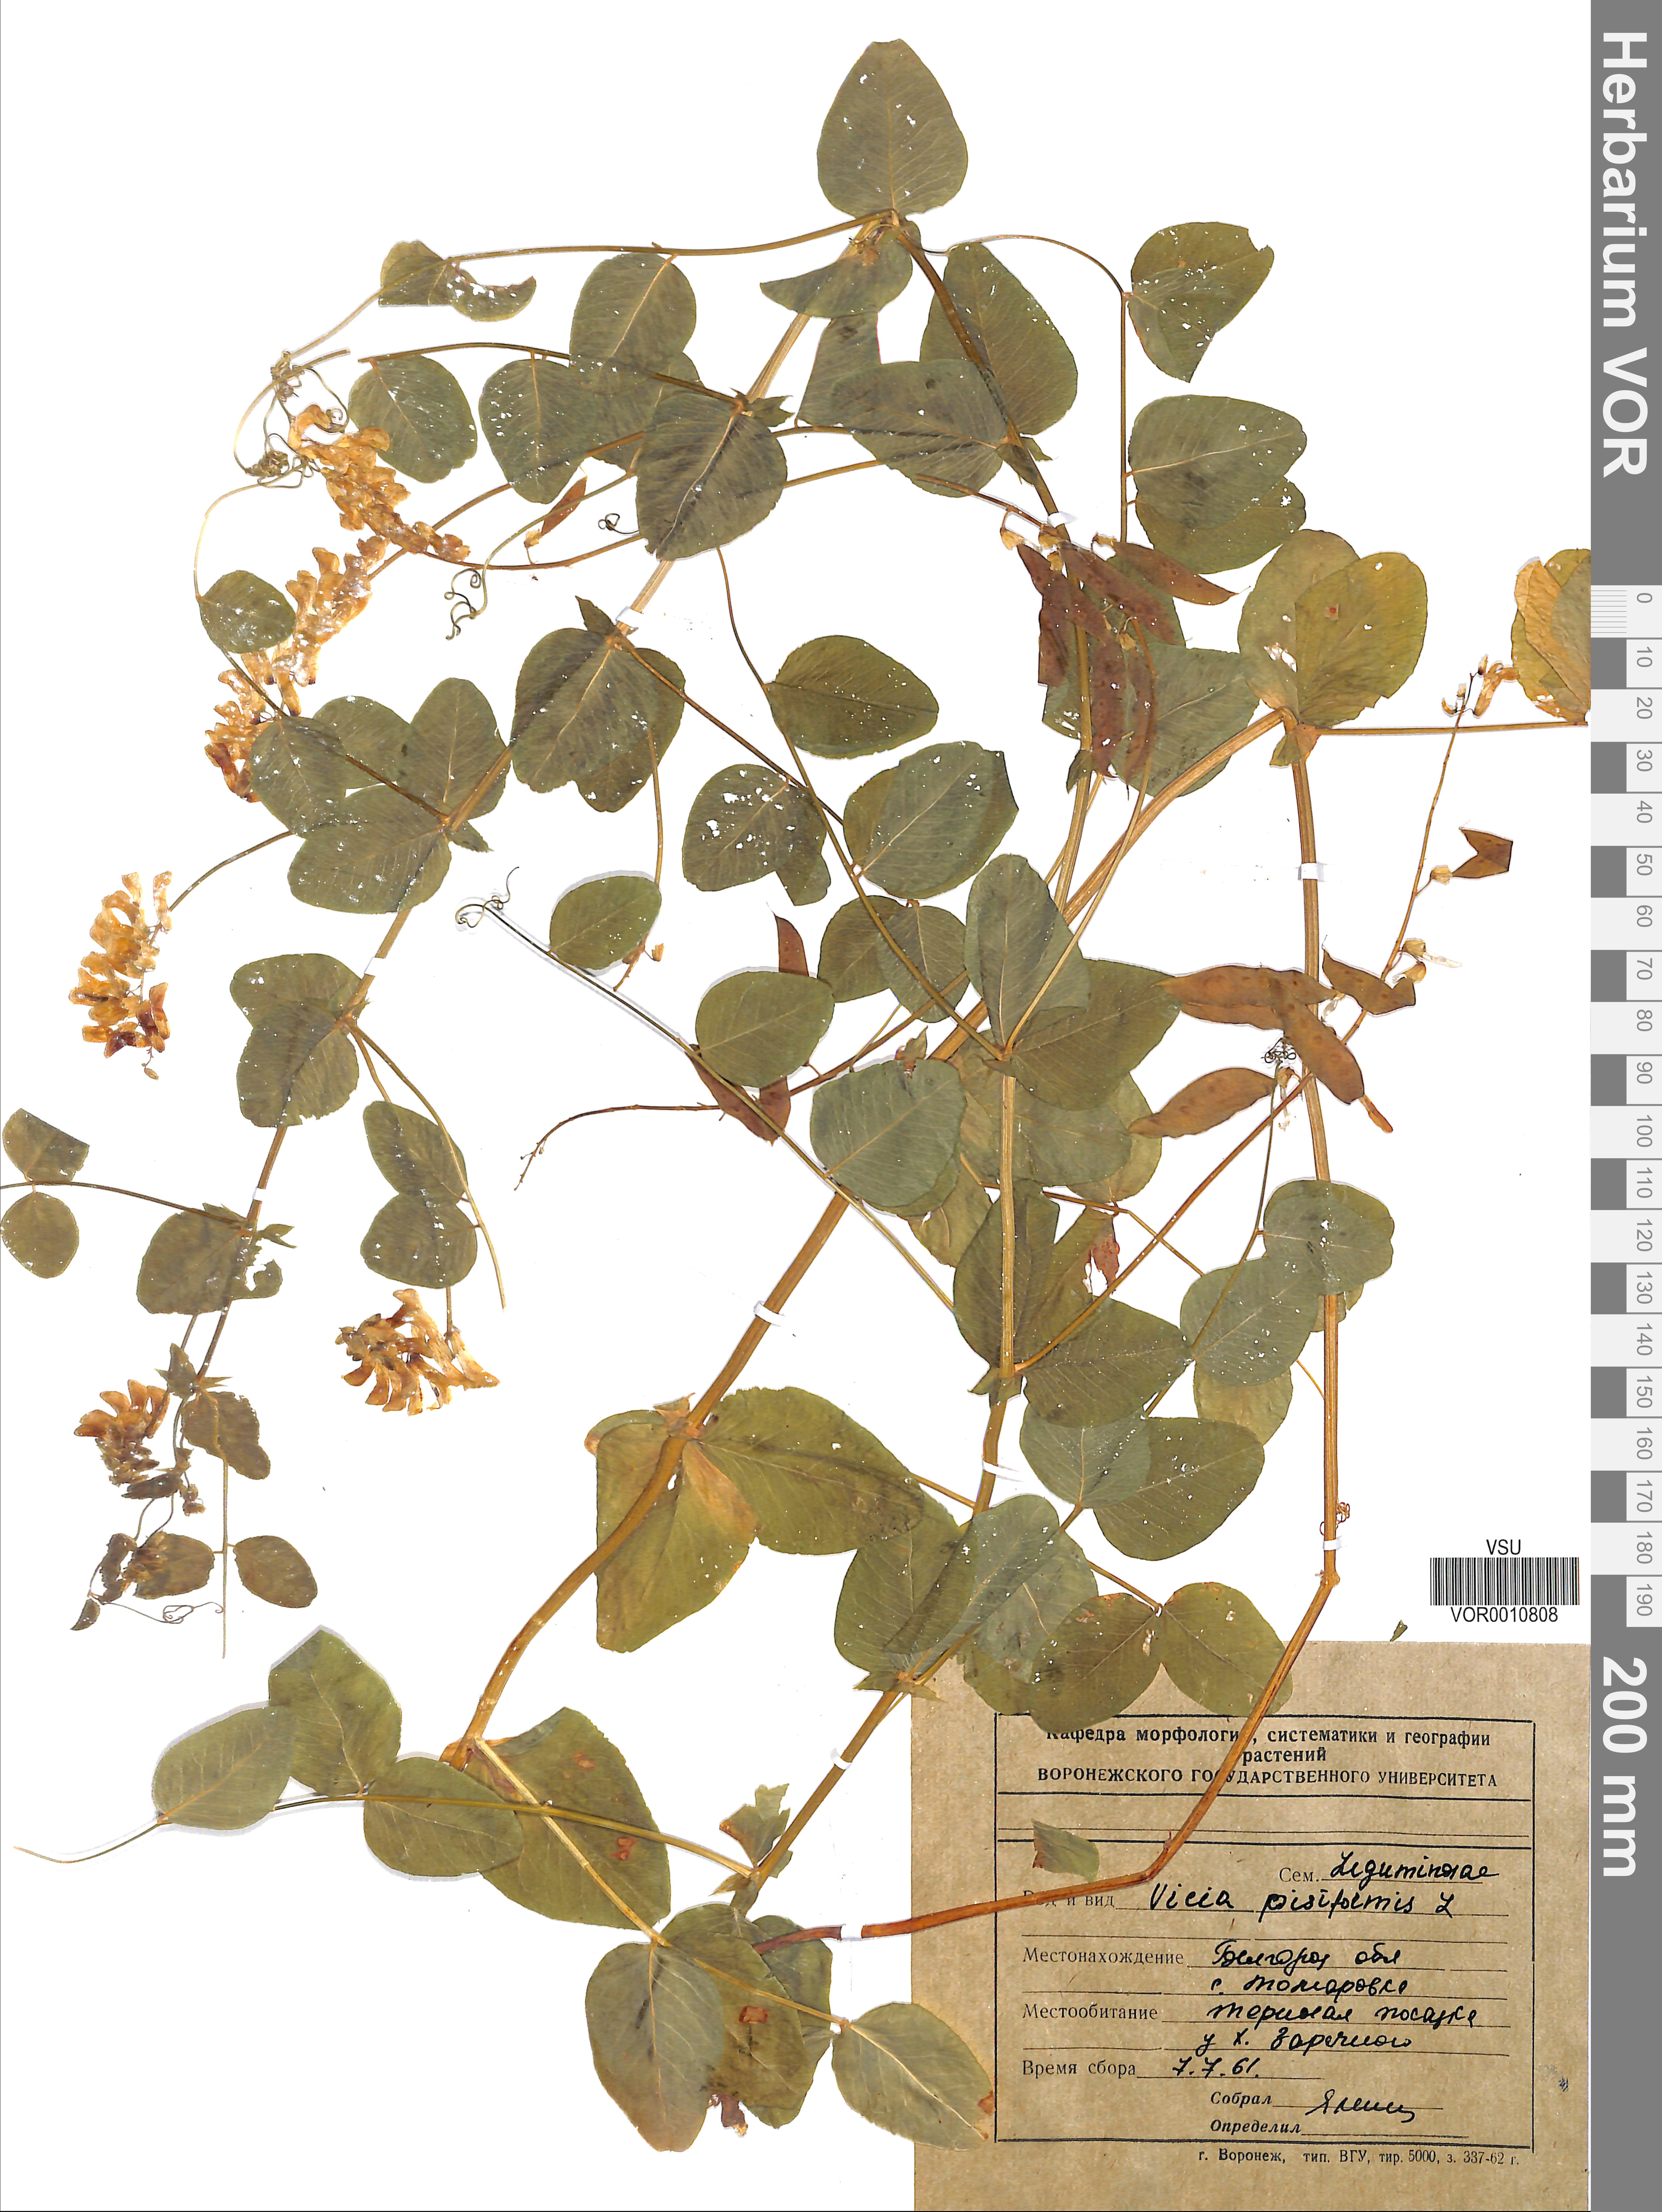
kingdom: Plantae
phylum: Tracheophyta
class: Magnoliopsida
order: Fabales
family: Fabaceae
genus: Vicia
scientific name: Vicia pisiformis
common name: Pale-flower vetch
